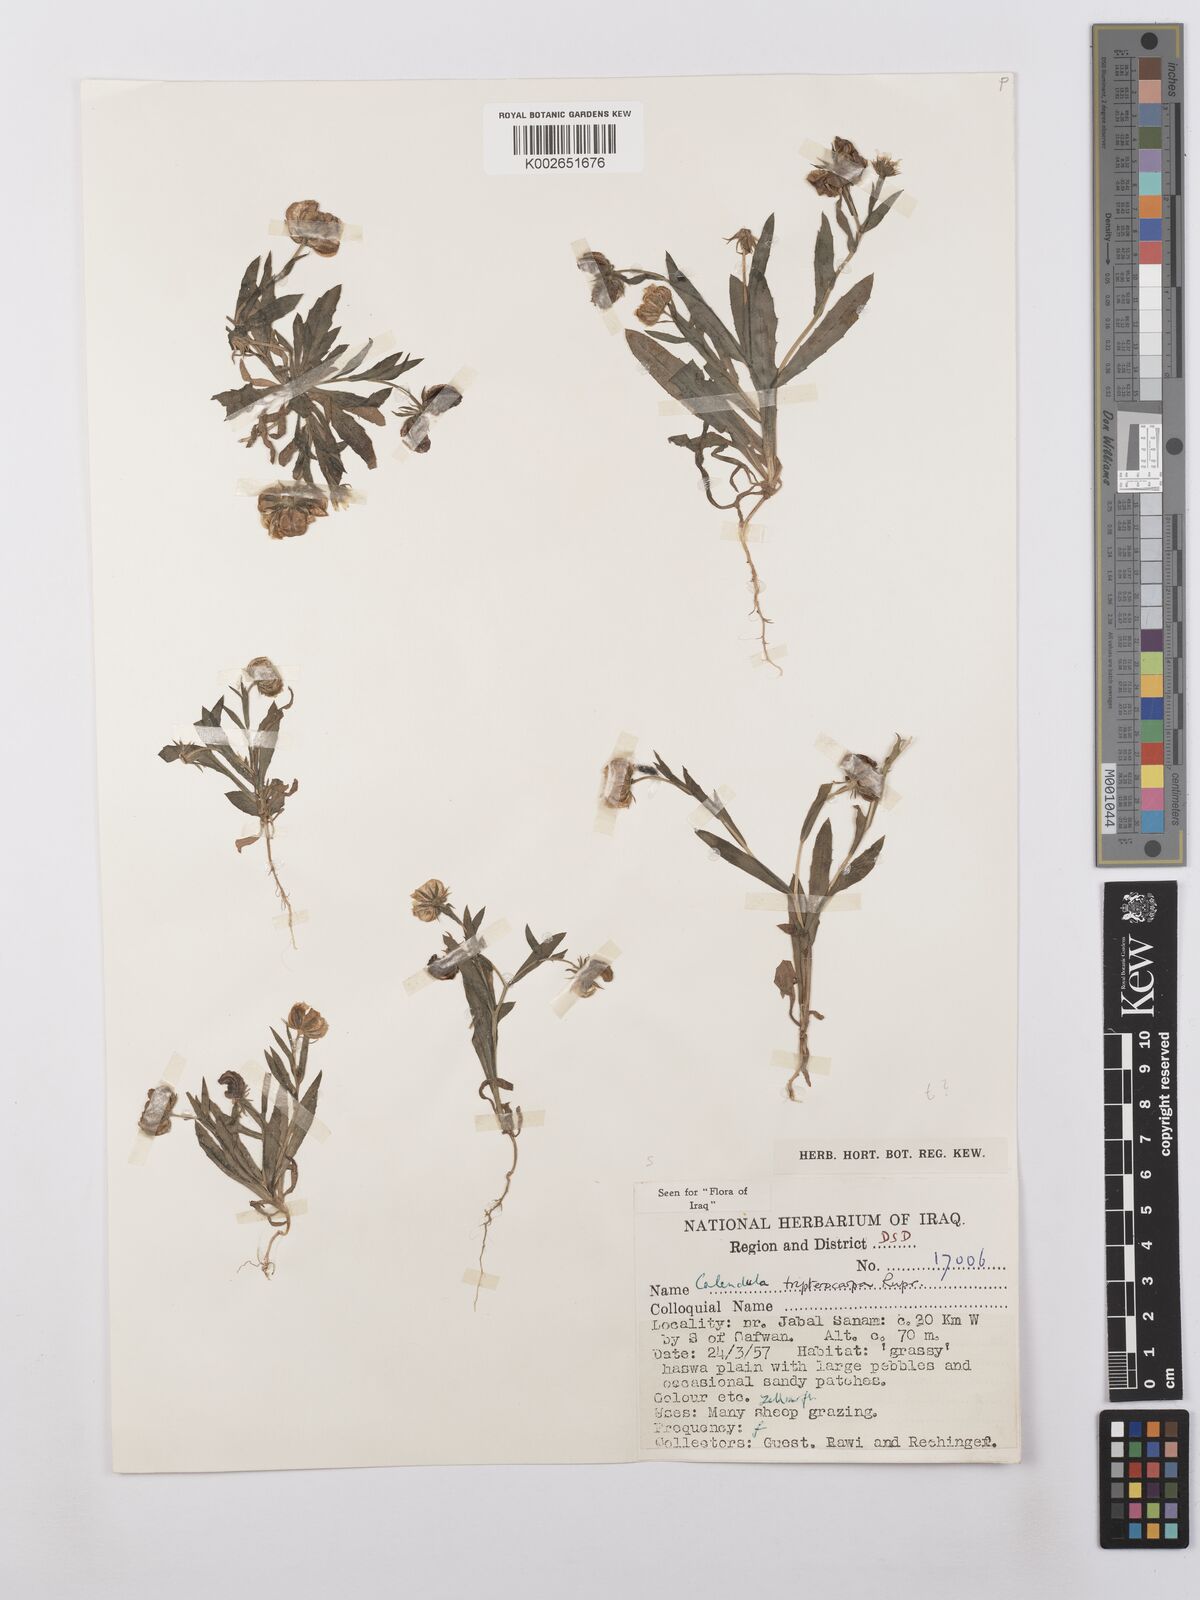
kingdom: Plantae
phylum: Tracheophyta
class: Magnoliopsida
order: Asterales
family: Asteraceae
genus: Calendula
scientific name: Calendula tripterocarpa
